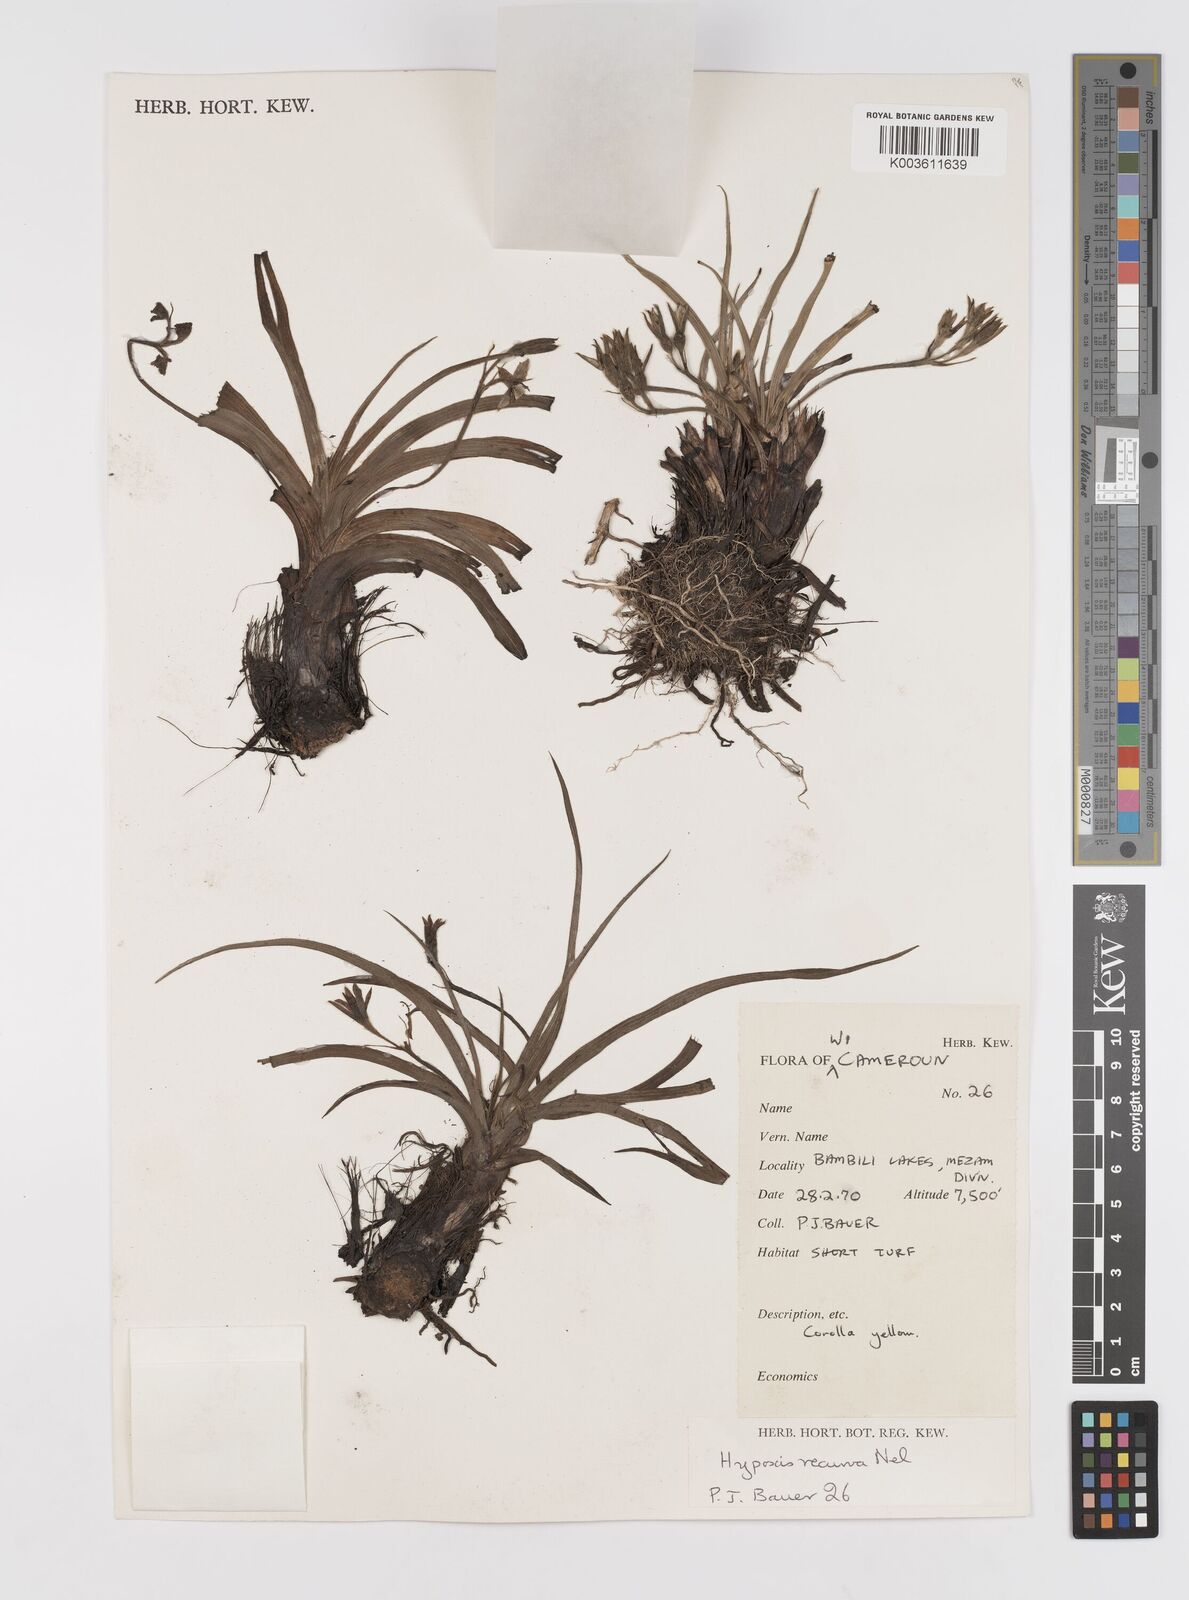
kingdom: Plantae
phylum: Tracheophyta
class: Liliopsida
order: Asparagales
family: Hypoxidaceae
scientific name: Hypoxidaceae
